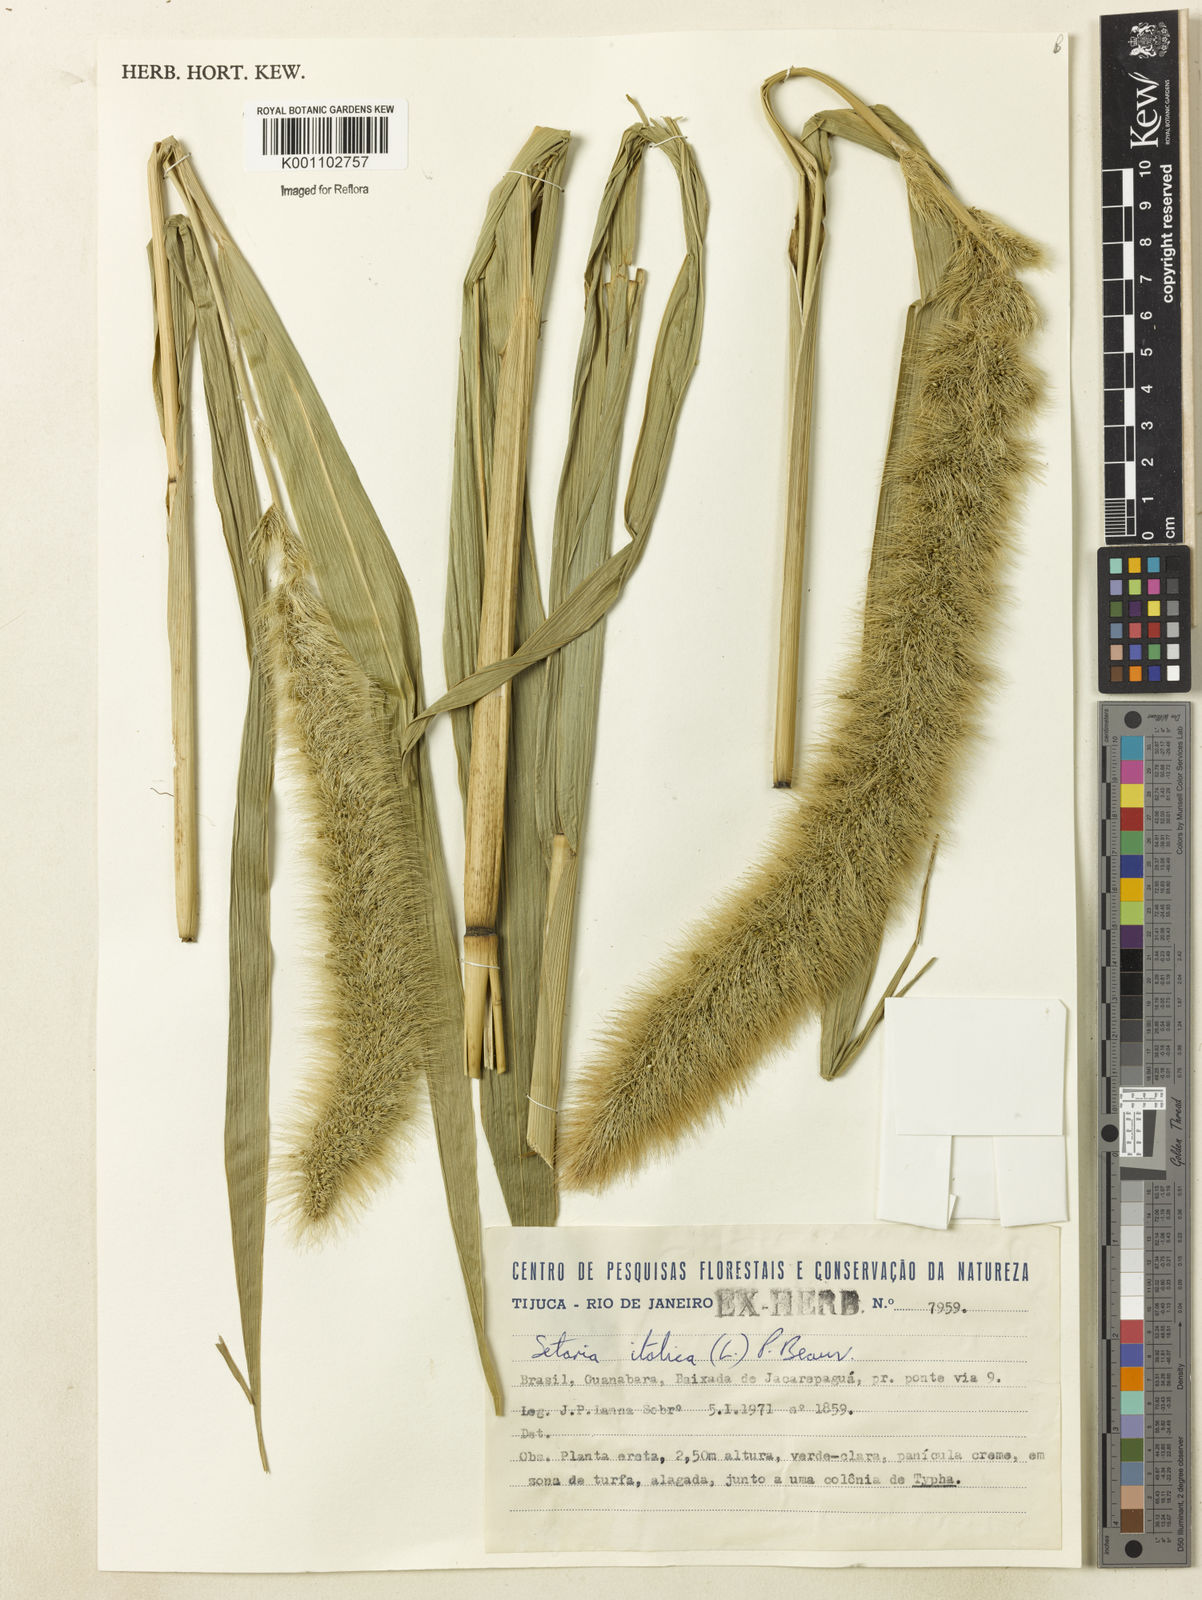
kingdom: Plantae
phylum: Tracheophyta
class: Liliopsida
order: Poales
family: Poaceae
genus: Setaria
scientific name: Setaria magna
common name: Giant bristle grass
